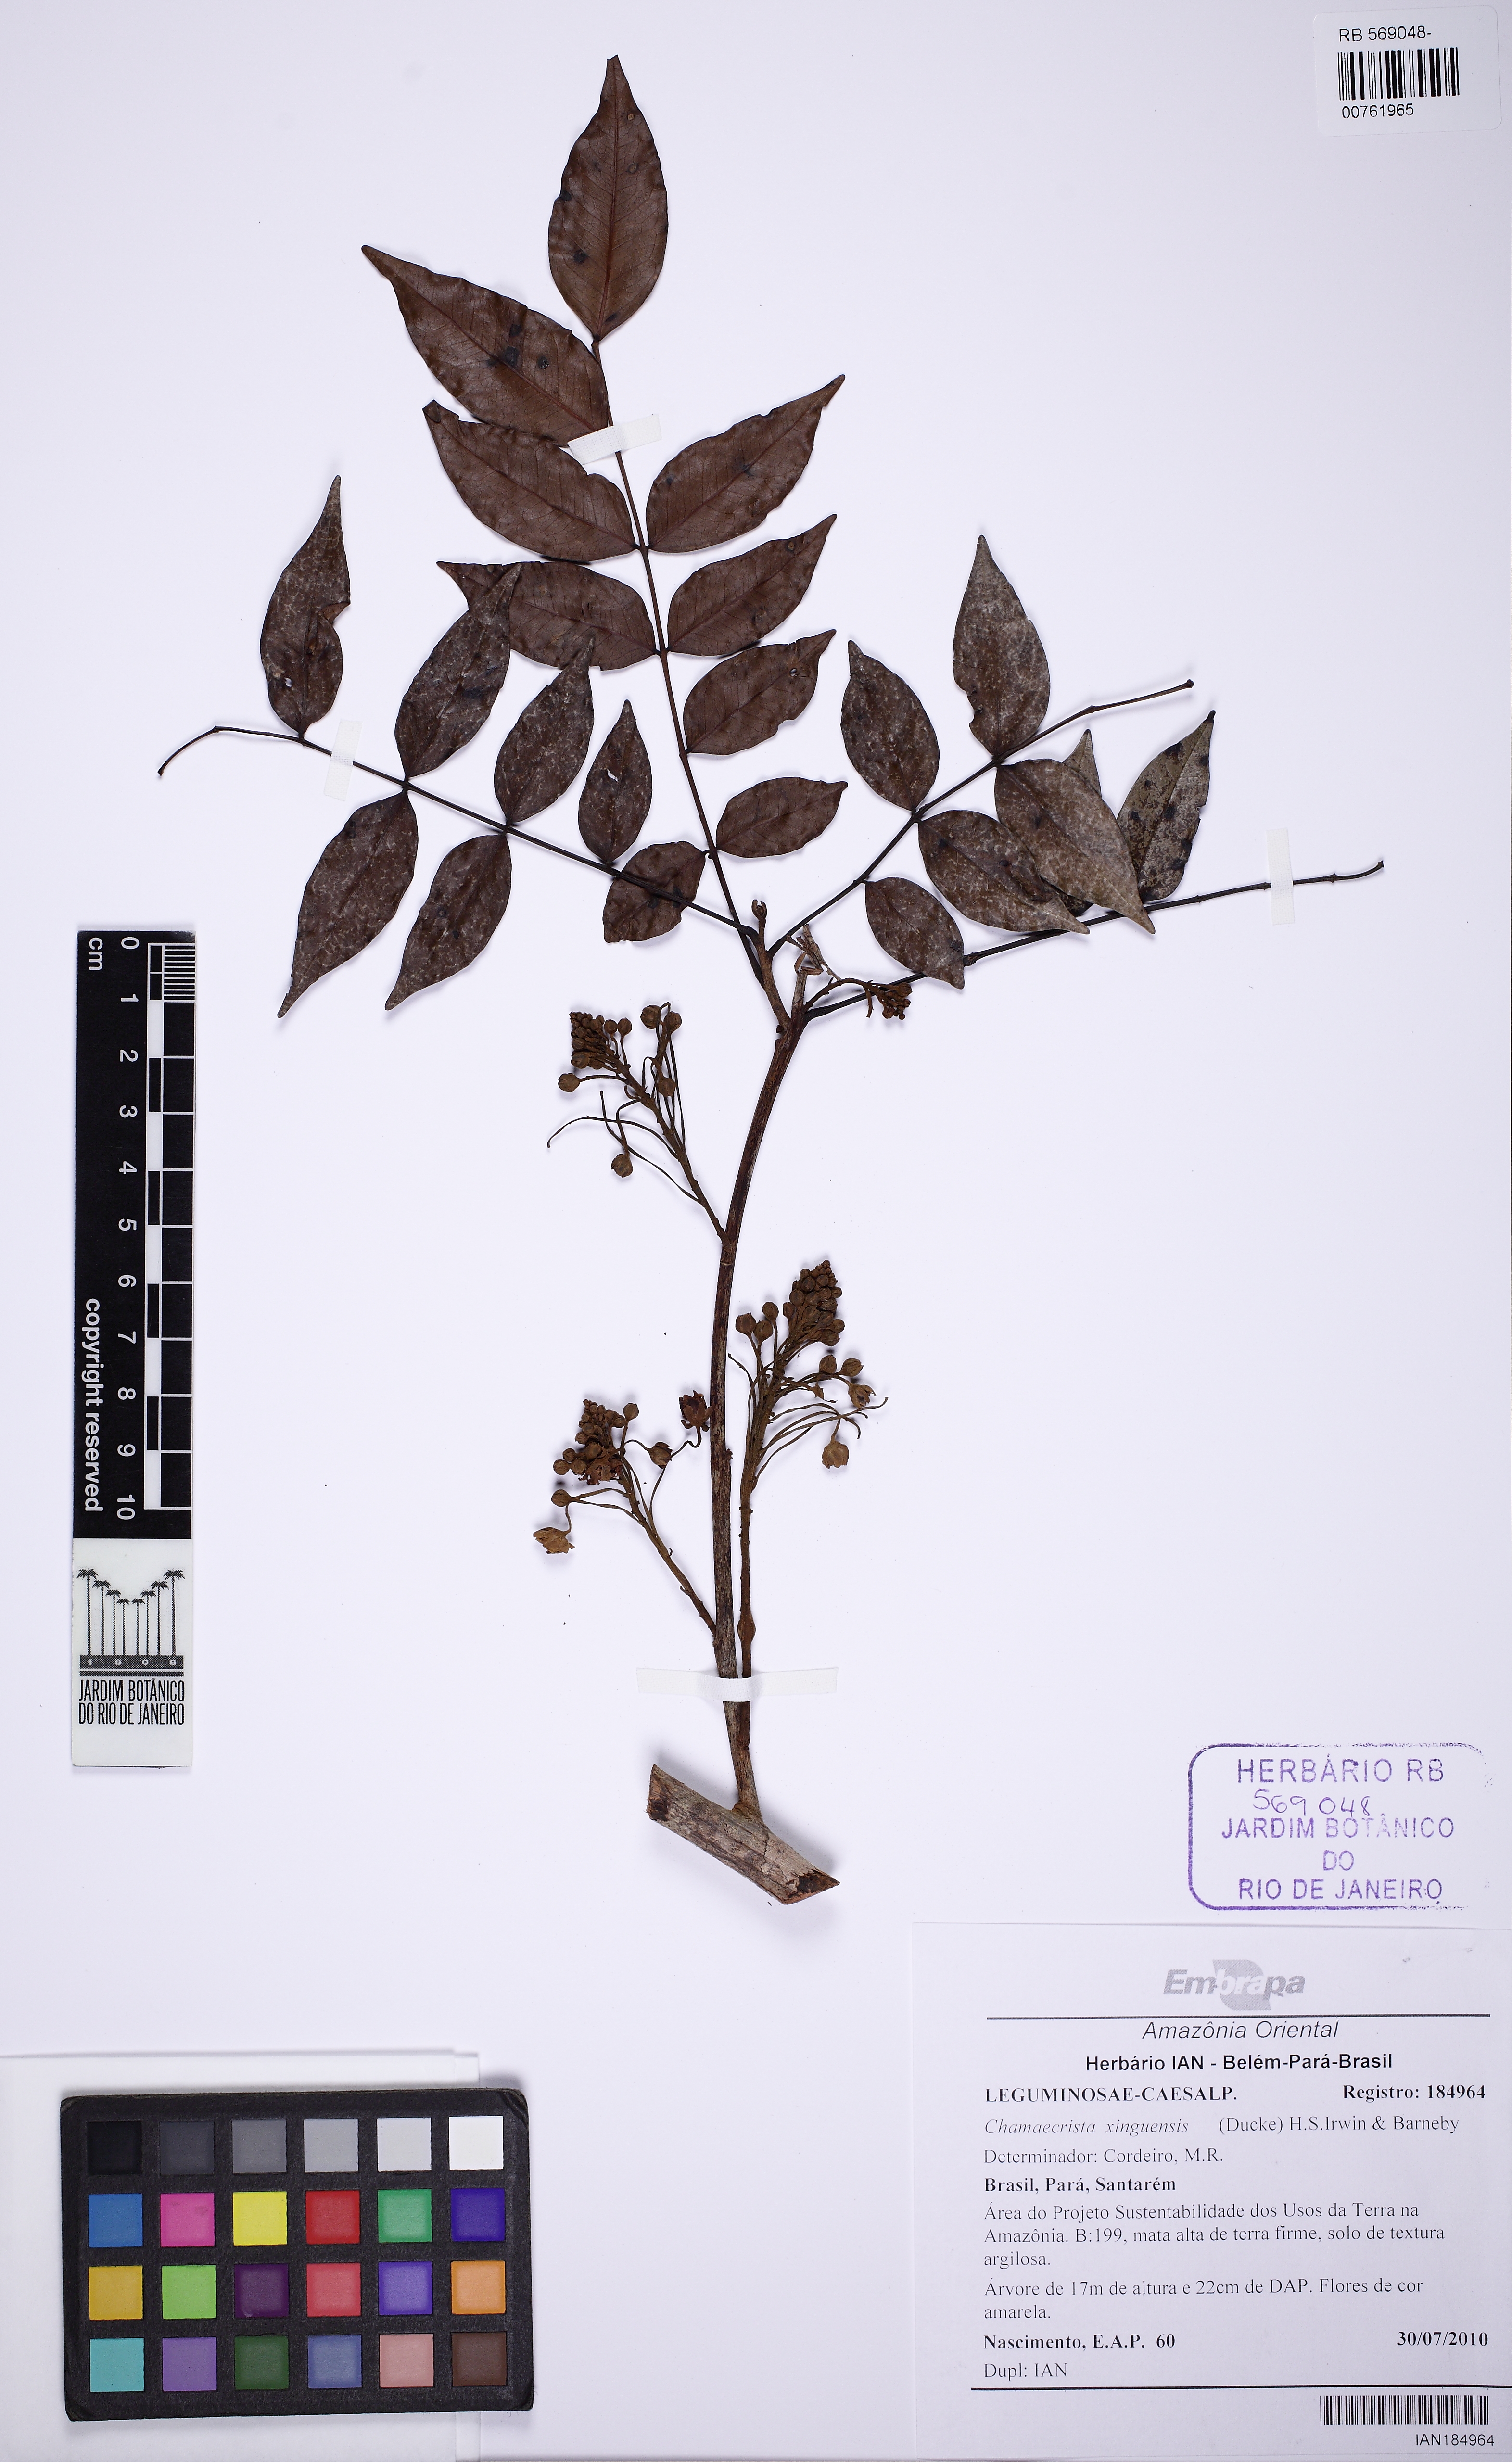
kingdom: Plantae
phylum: Tracheophyta
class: Magnoliopsida
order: Fabales
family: Fabaceae
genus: Chamaecrista
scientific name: Chamaecrista xinguensis
